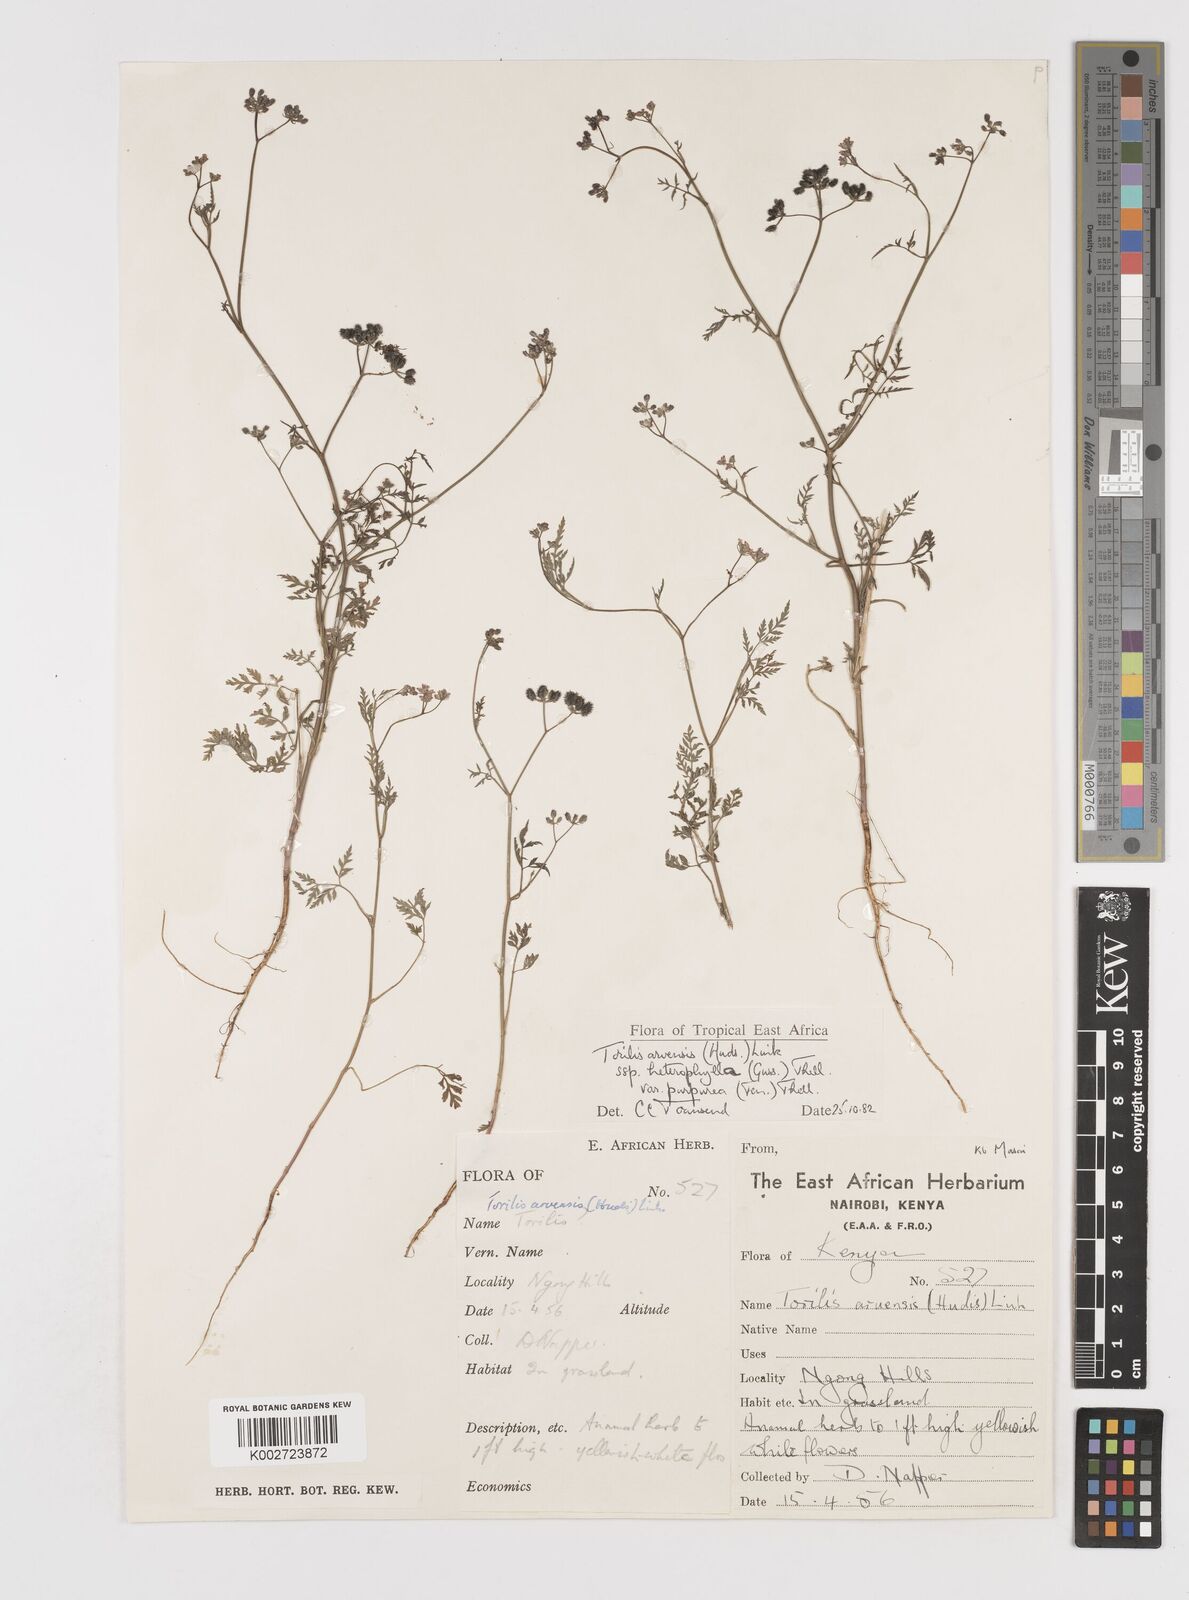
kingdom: Plantae
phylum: Tracheophyta
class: Magnoliopsida
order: Apiales
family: Apiaceae
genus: Torilis
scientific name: Torilis arvensis
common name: Spreading hedge-parsley
